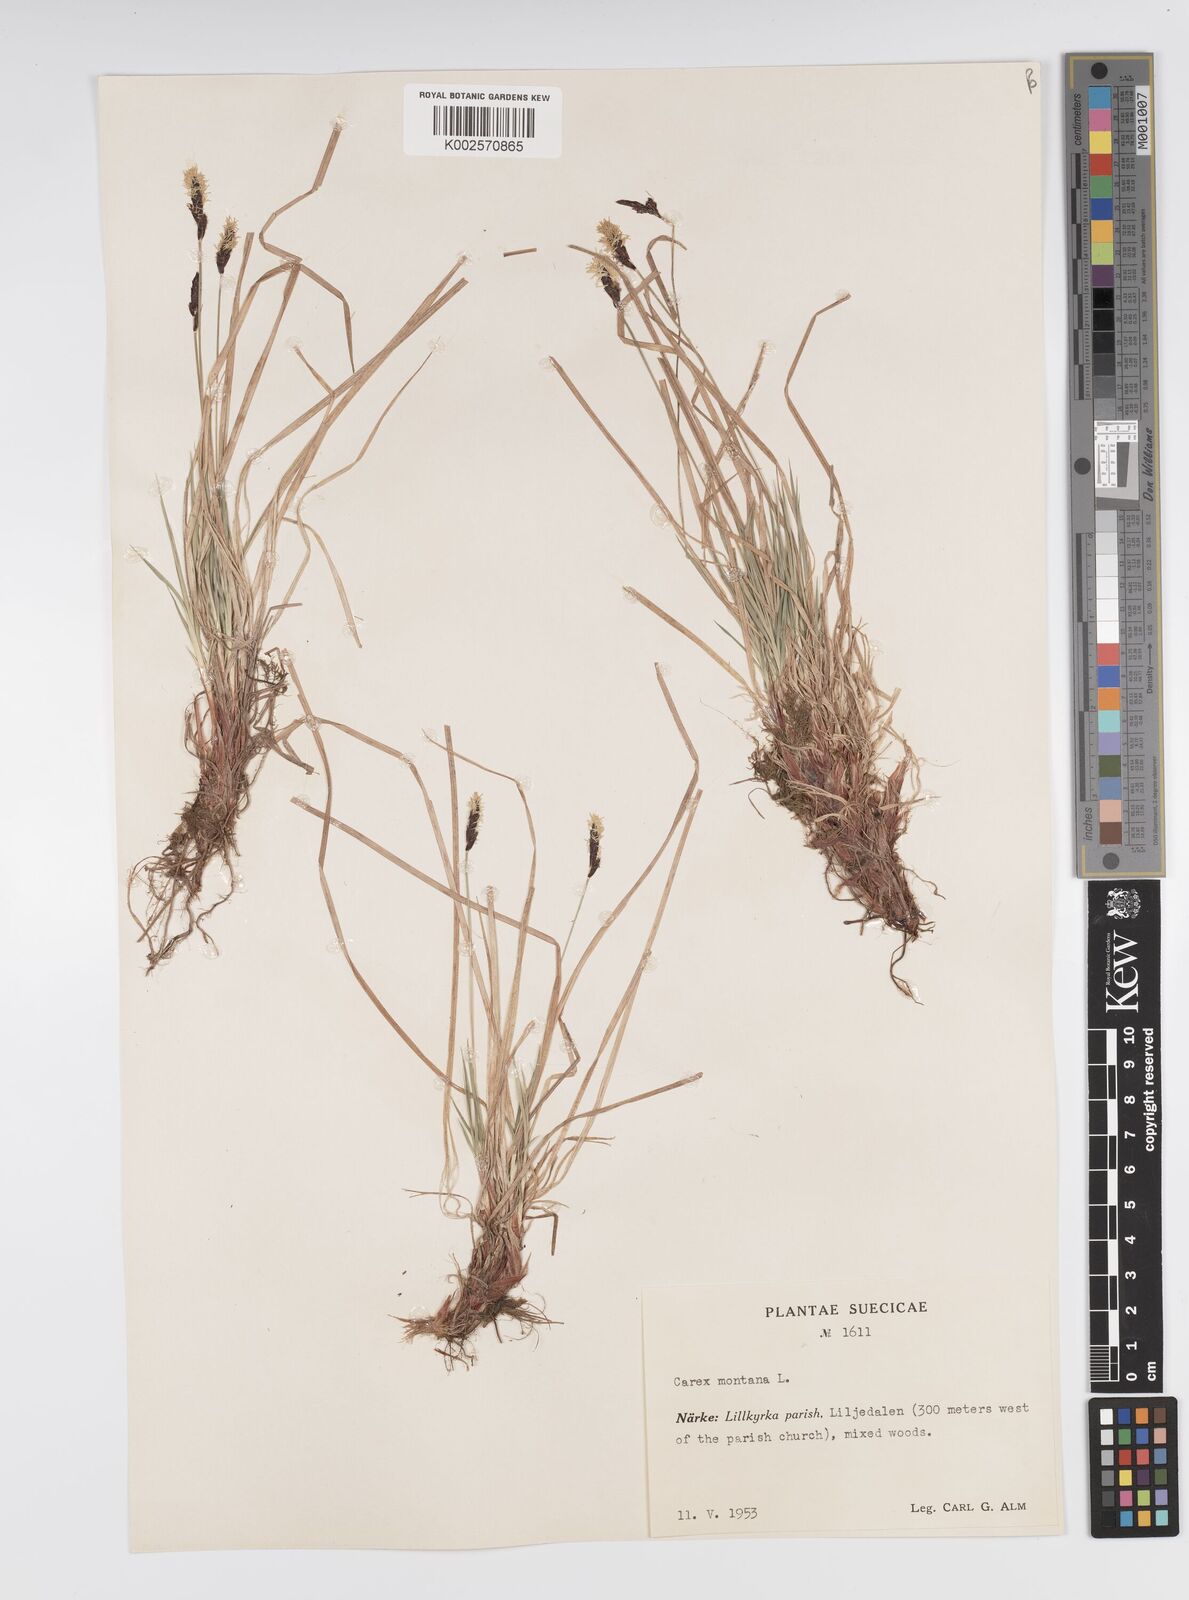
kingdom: Plantae
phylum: Tracheophyta
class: Liliopsida
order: Poales
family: Cyperaceae
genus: Carex
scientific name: Carex montana
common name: Soft-leaved sedge
